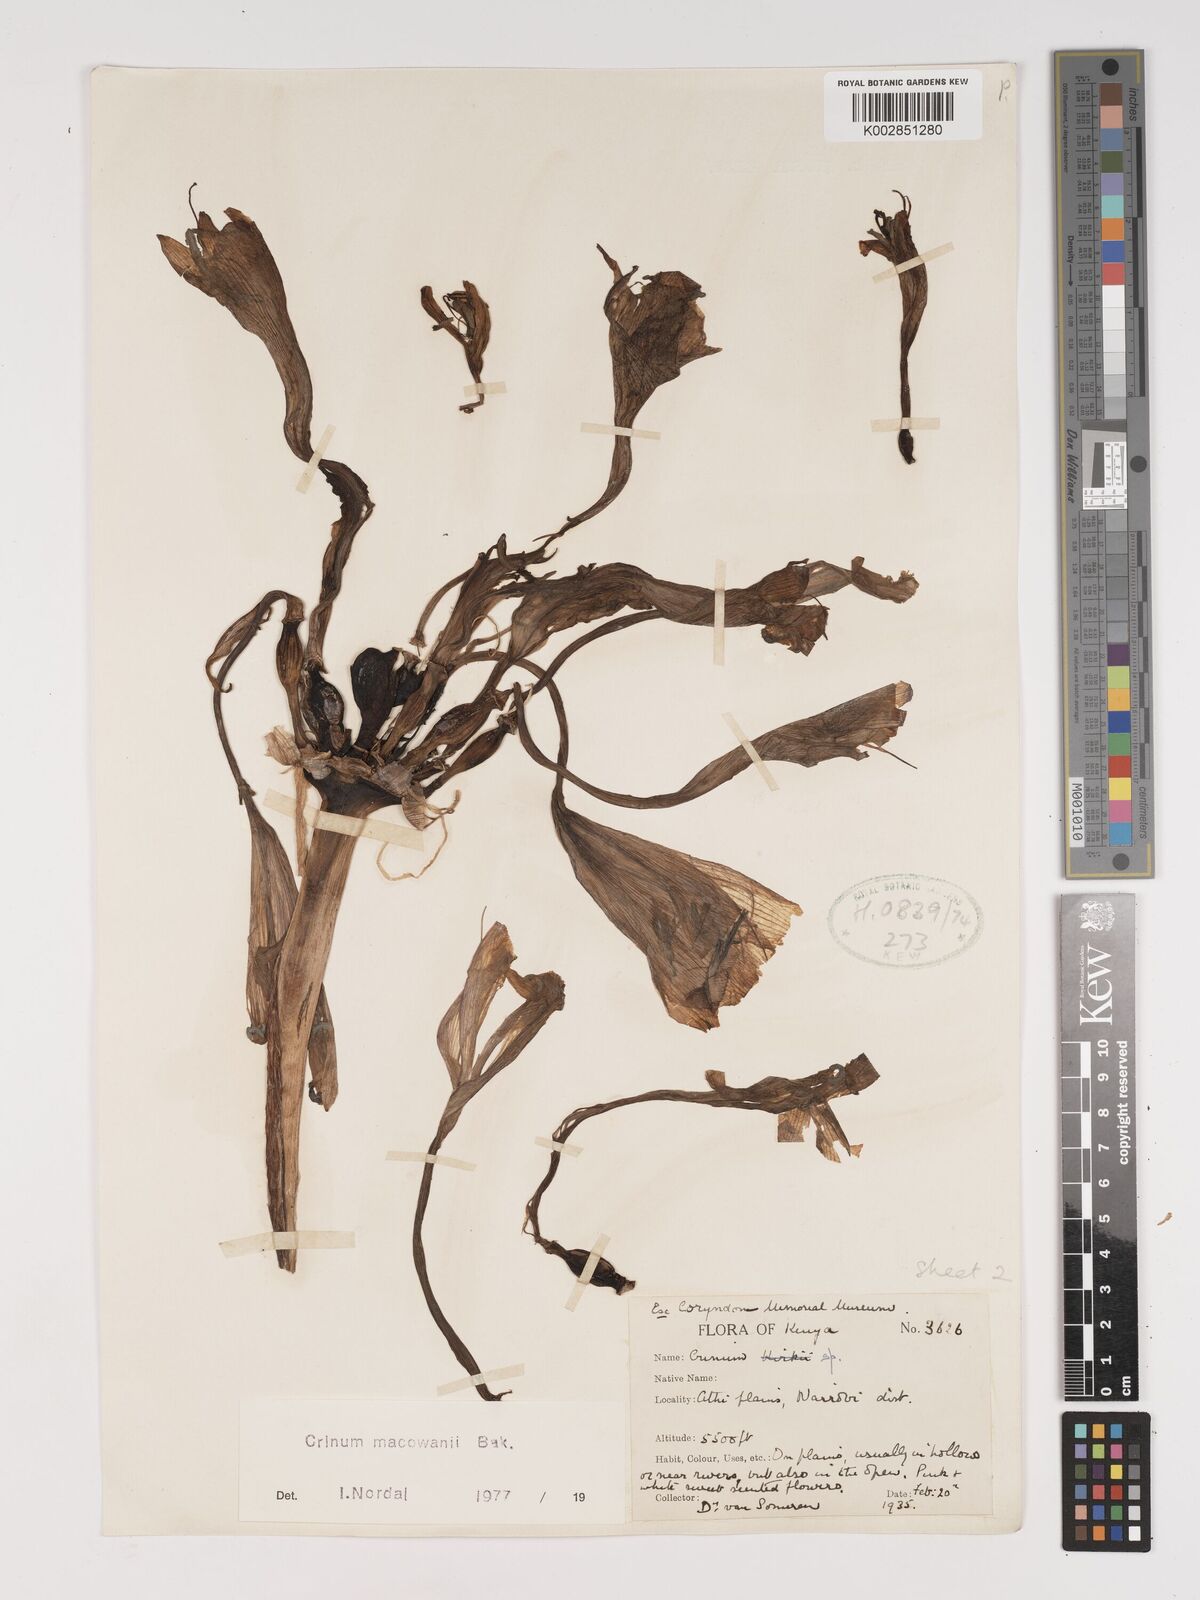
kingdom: Plantae
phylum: Tracheophyta
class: Liliopsida
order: Asparagales
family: Amaryllidaceae
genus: Crinum
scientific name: Crinum macowanii
